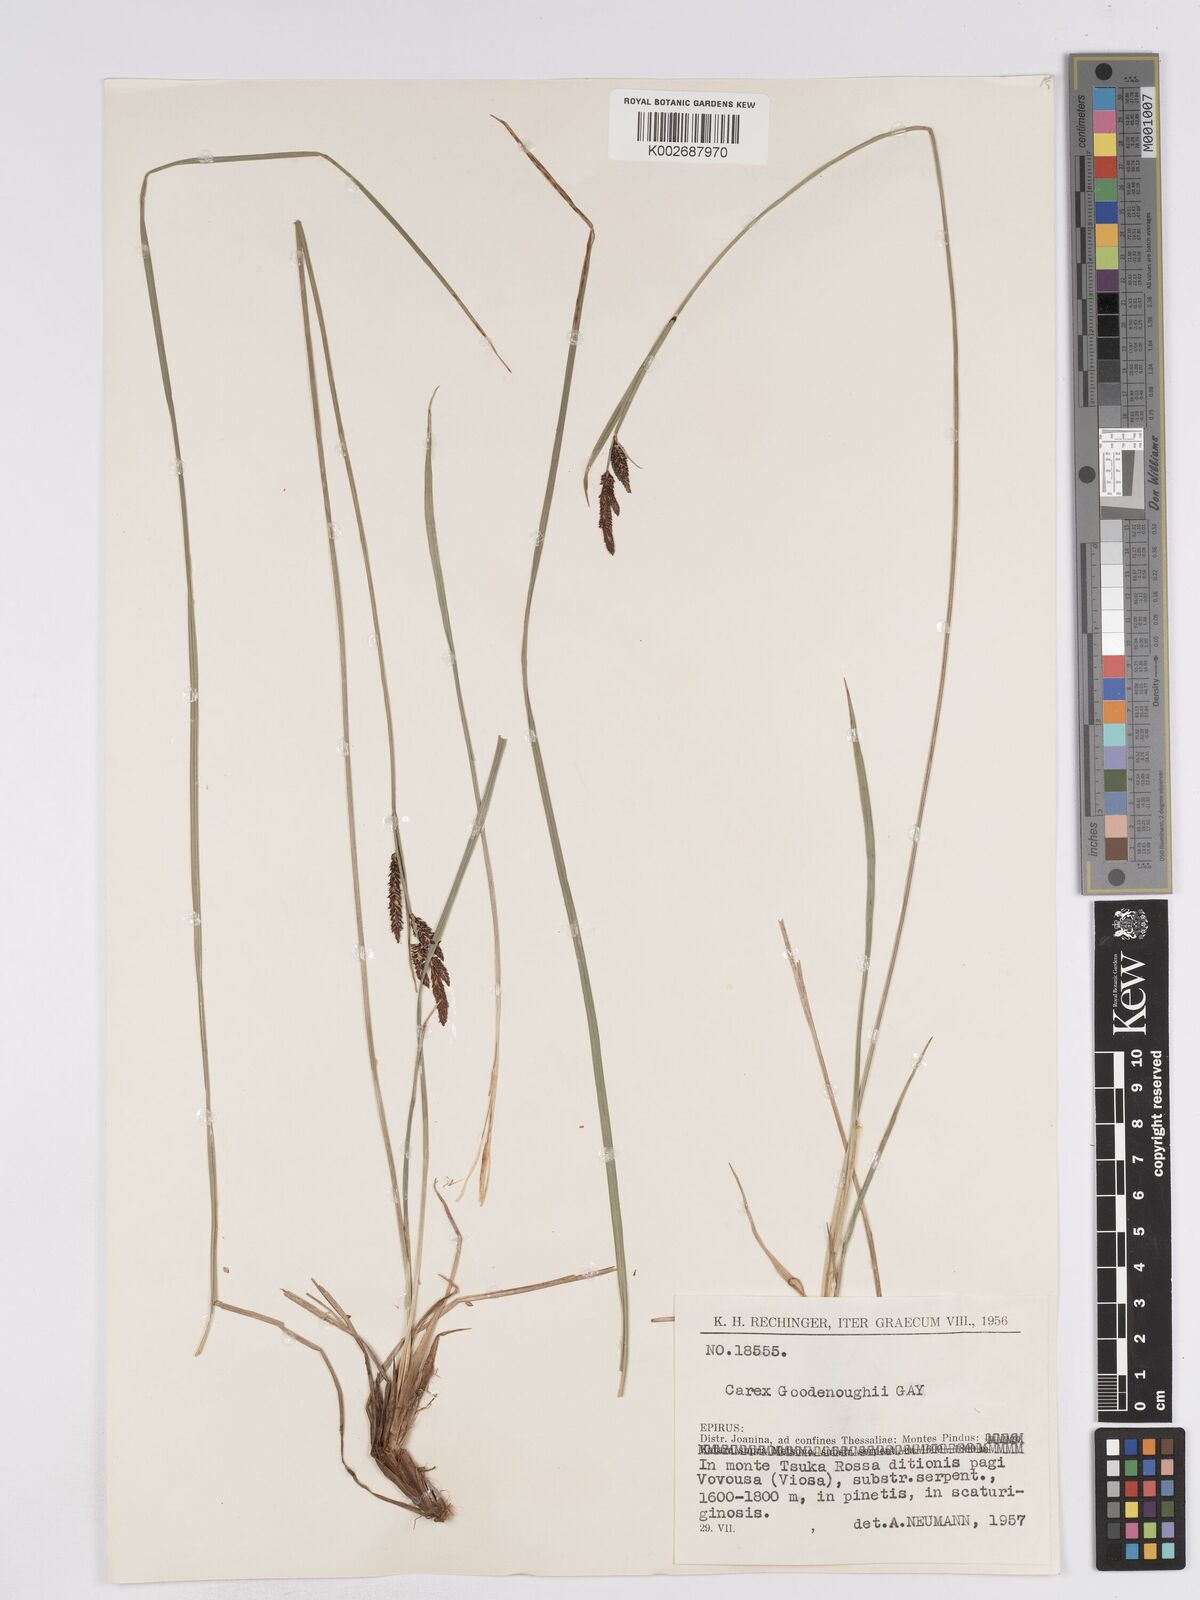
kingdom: Plantae
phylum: Tracheophyta
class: Liliopsida
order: Poales
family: Cyperaceae
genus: Carex
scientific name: Carex acuta
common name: Slender tufted-sedge
